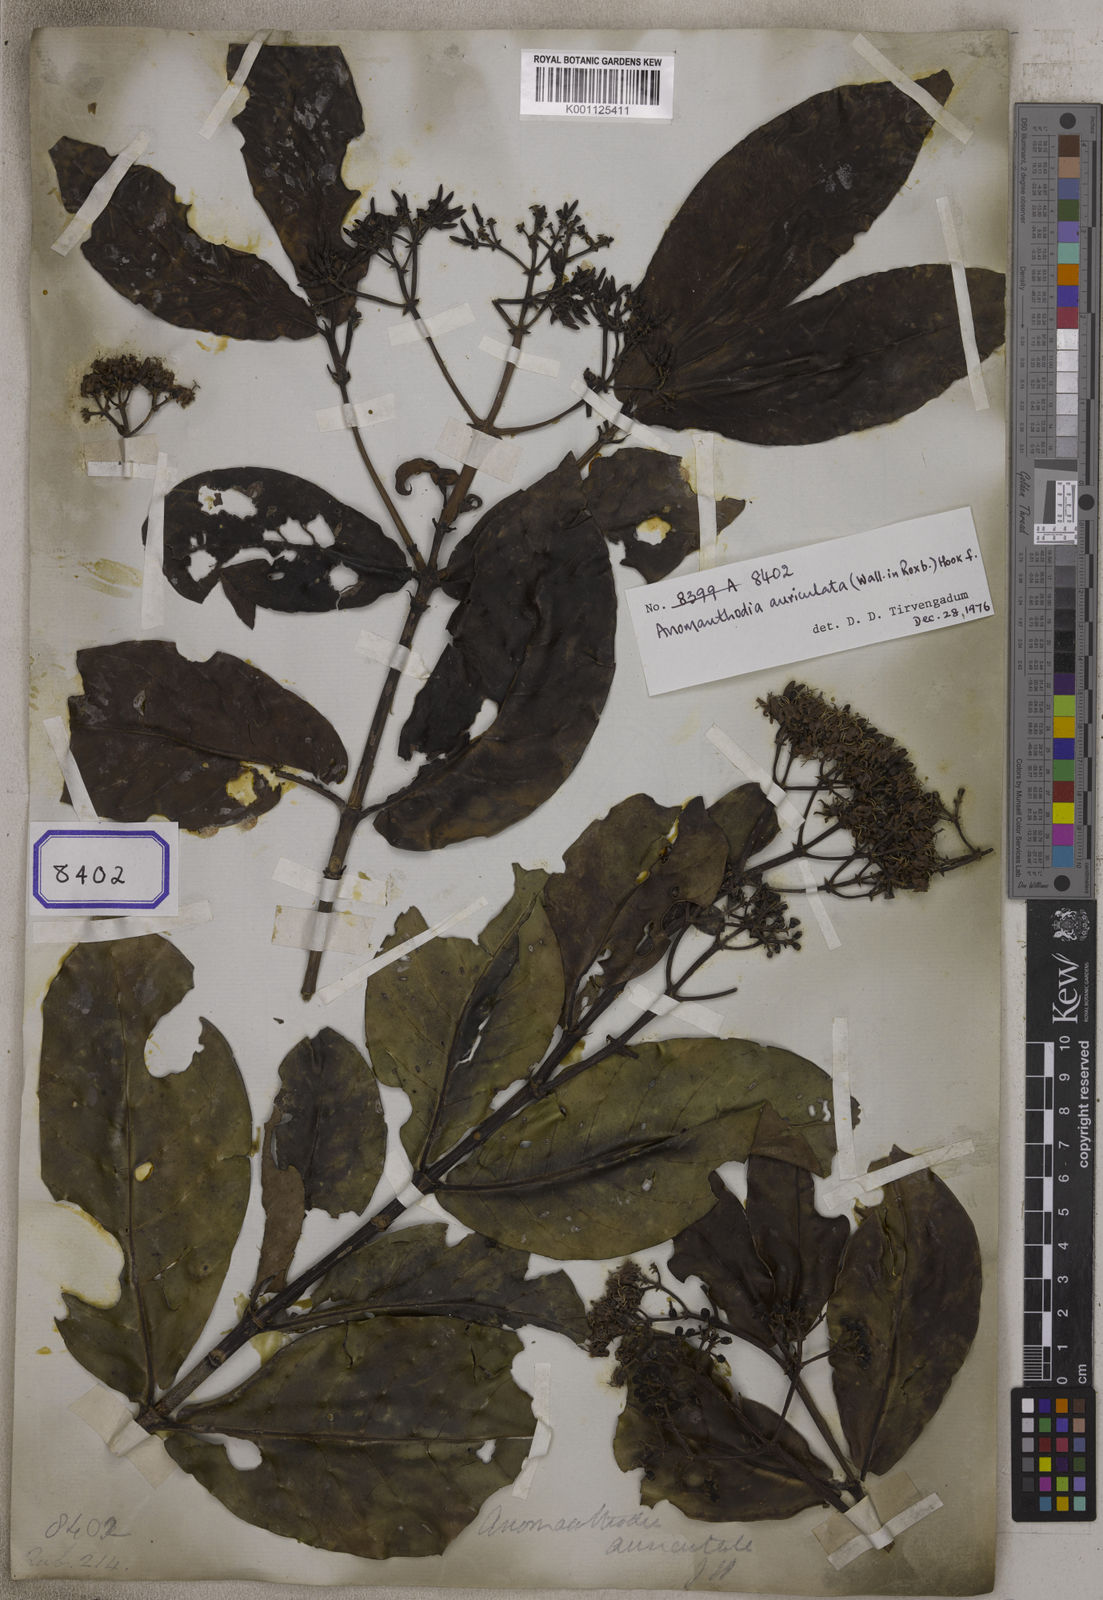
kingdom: Plantae
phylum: Tracheophyta
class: Magnoliopsida
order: Gentianales
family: Rubiaceae
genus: Aidia
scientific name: Aidia
